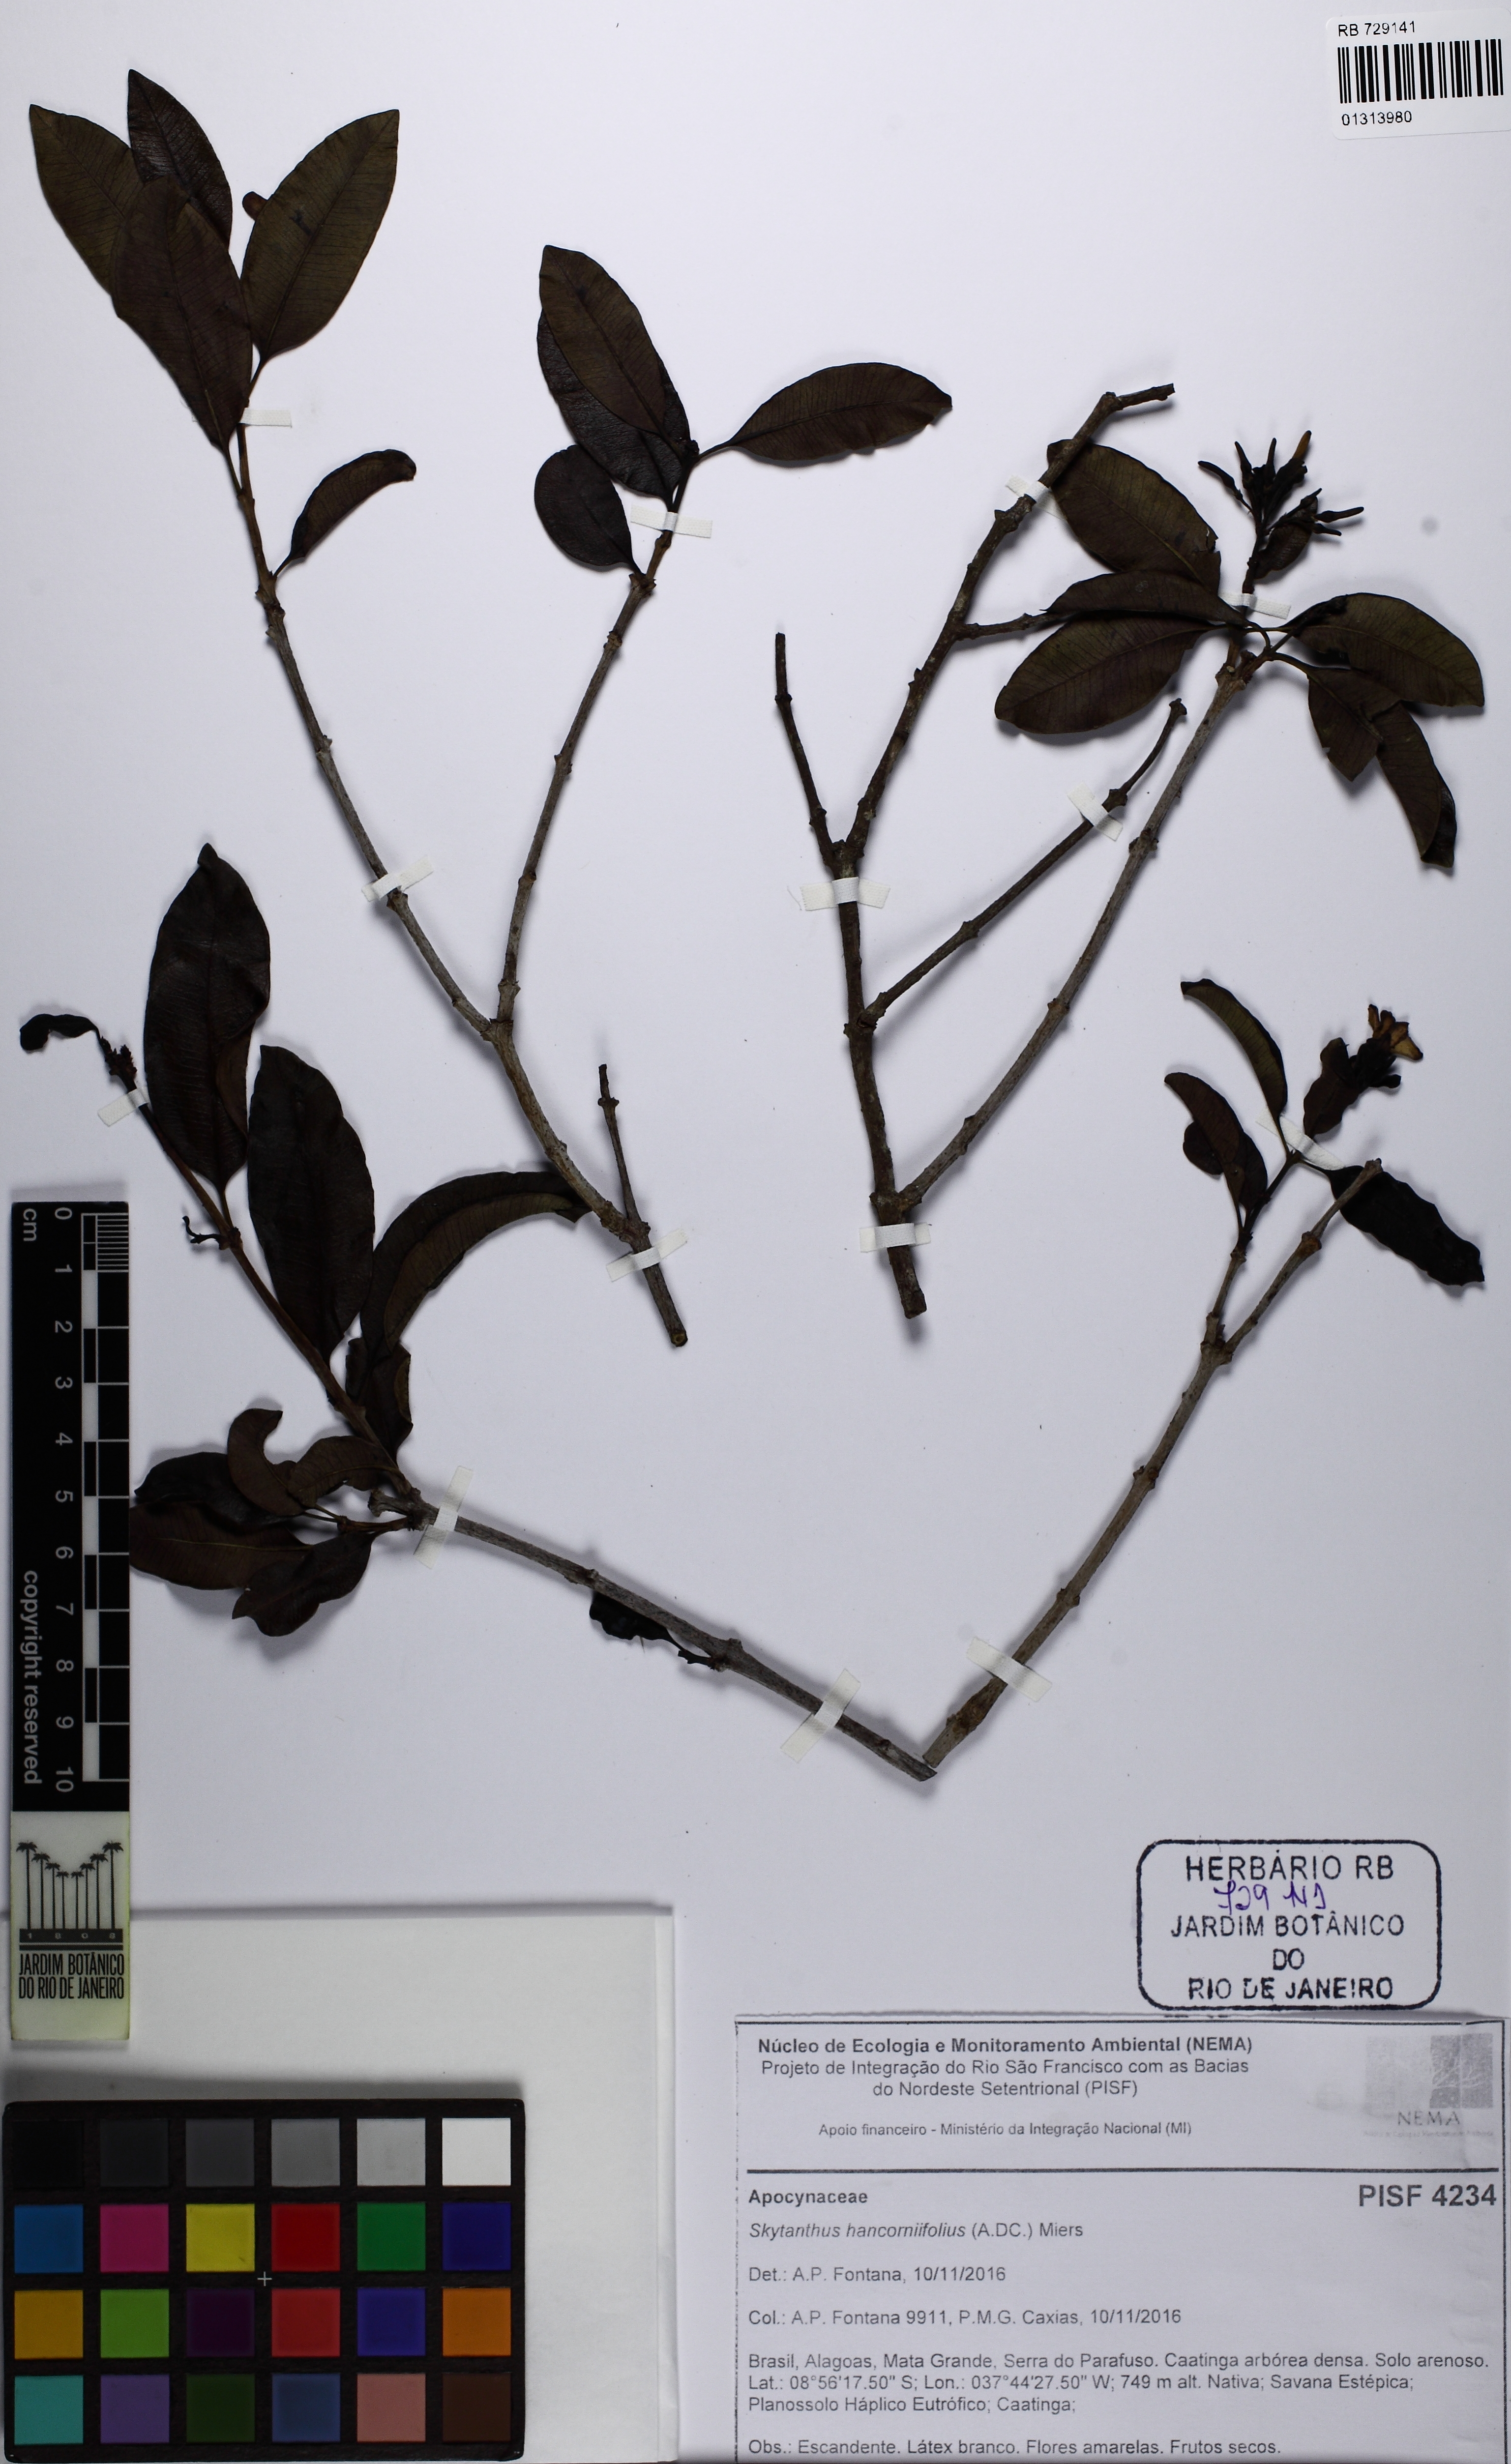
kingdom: Plantae
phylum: Tracheophyta
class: Magnoliopsida
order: Gentianales
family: Apocynaceae
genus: Skytanthus
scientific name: Skytanthus hancorniifolius
